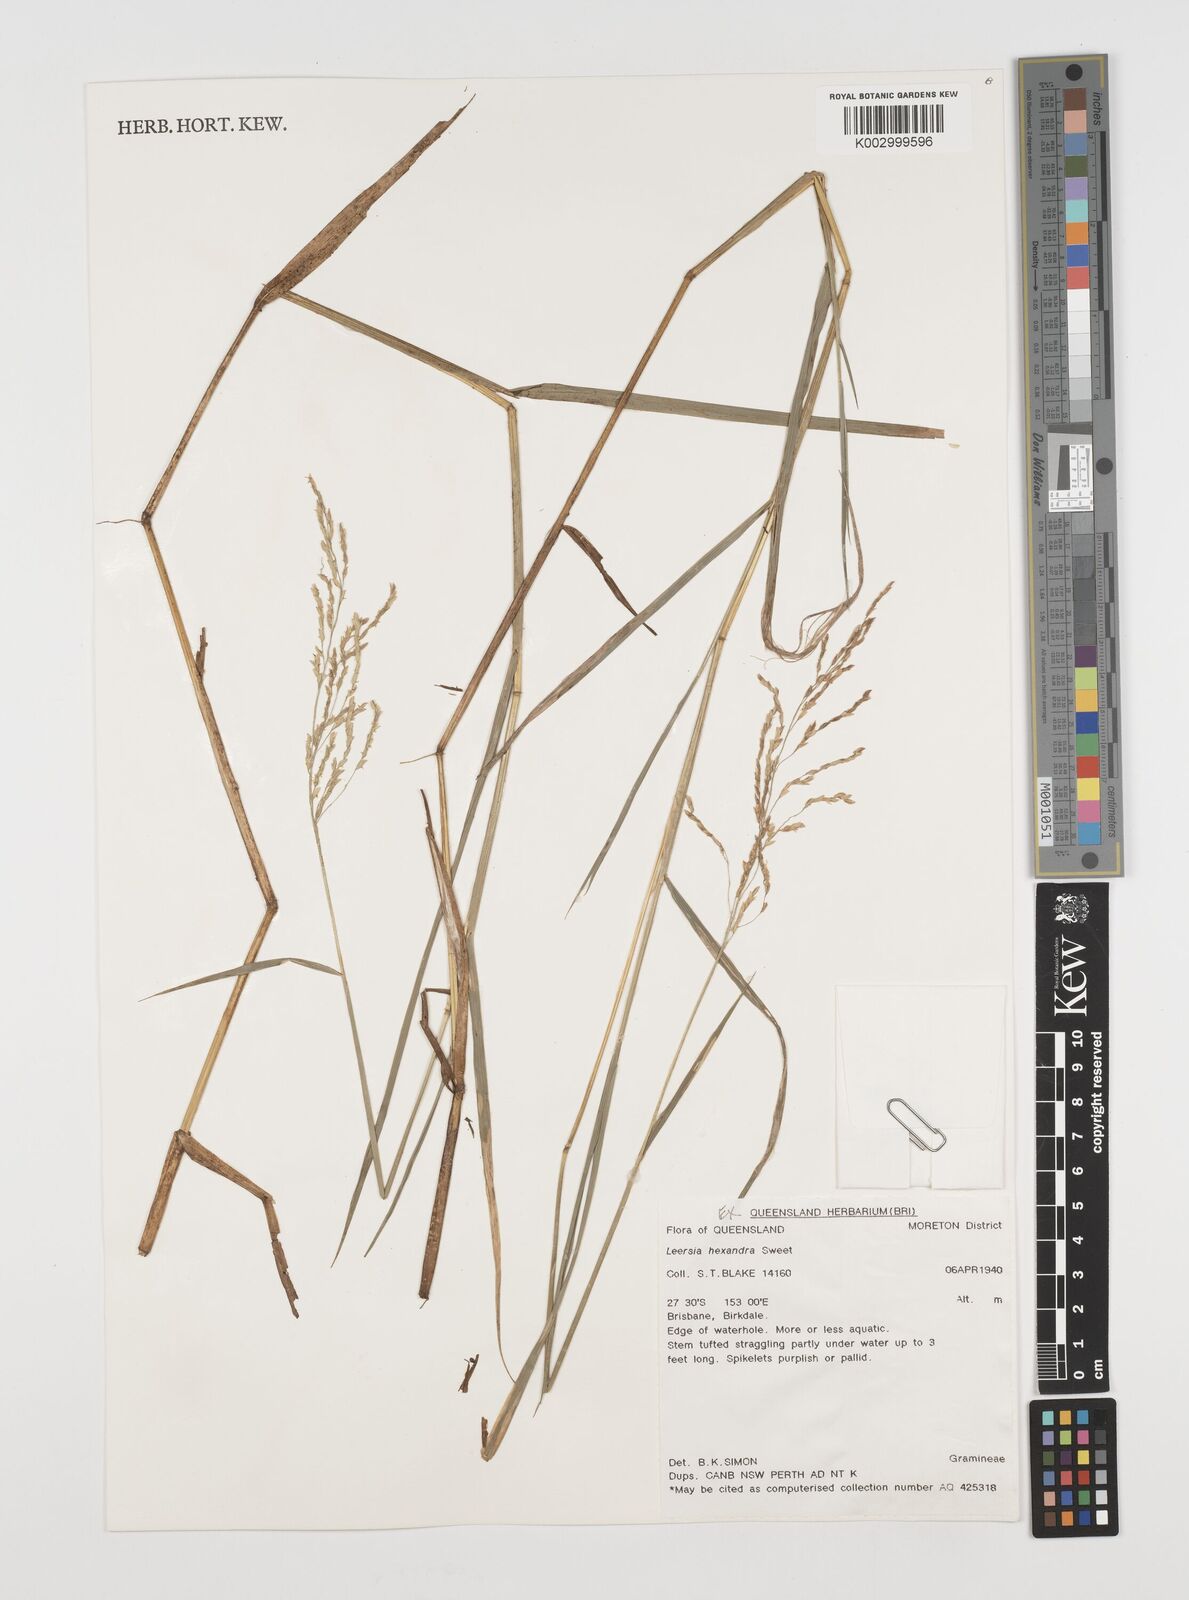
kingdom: Plantae
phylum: Tracheophyta
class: Liliopsida
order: Poales
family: Poaceae
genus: Leersia
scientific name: Leersia hexandra
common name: Southern cut grass
